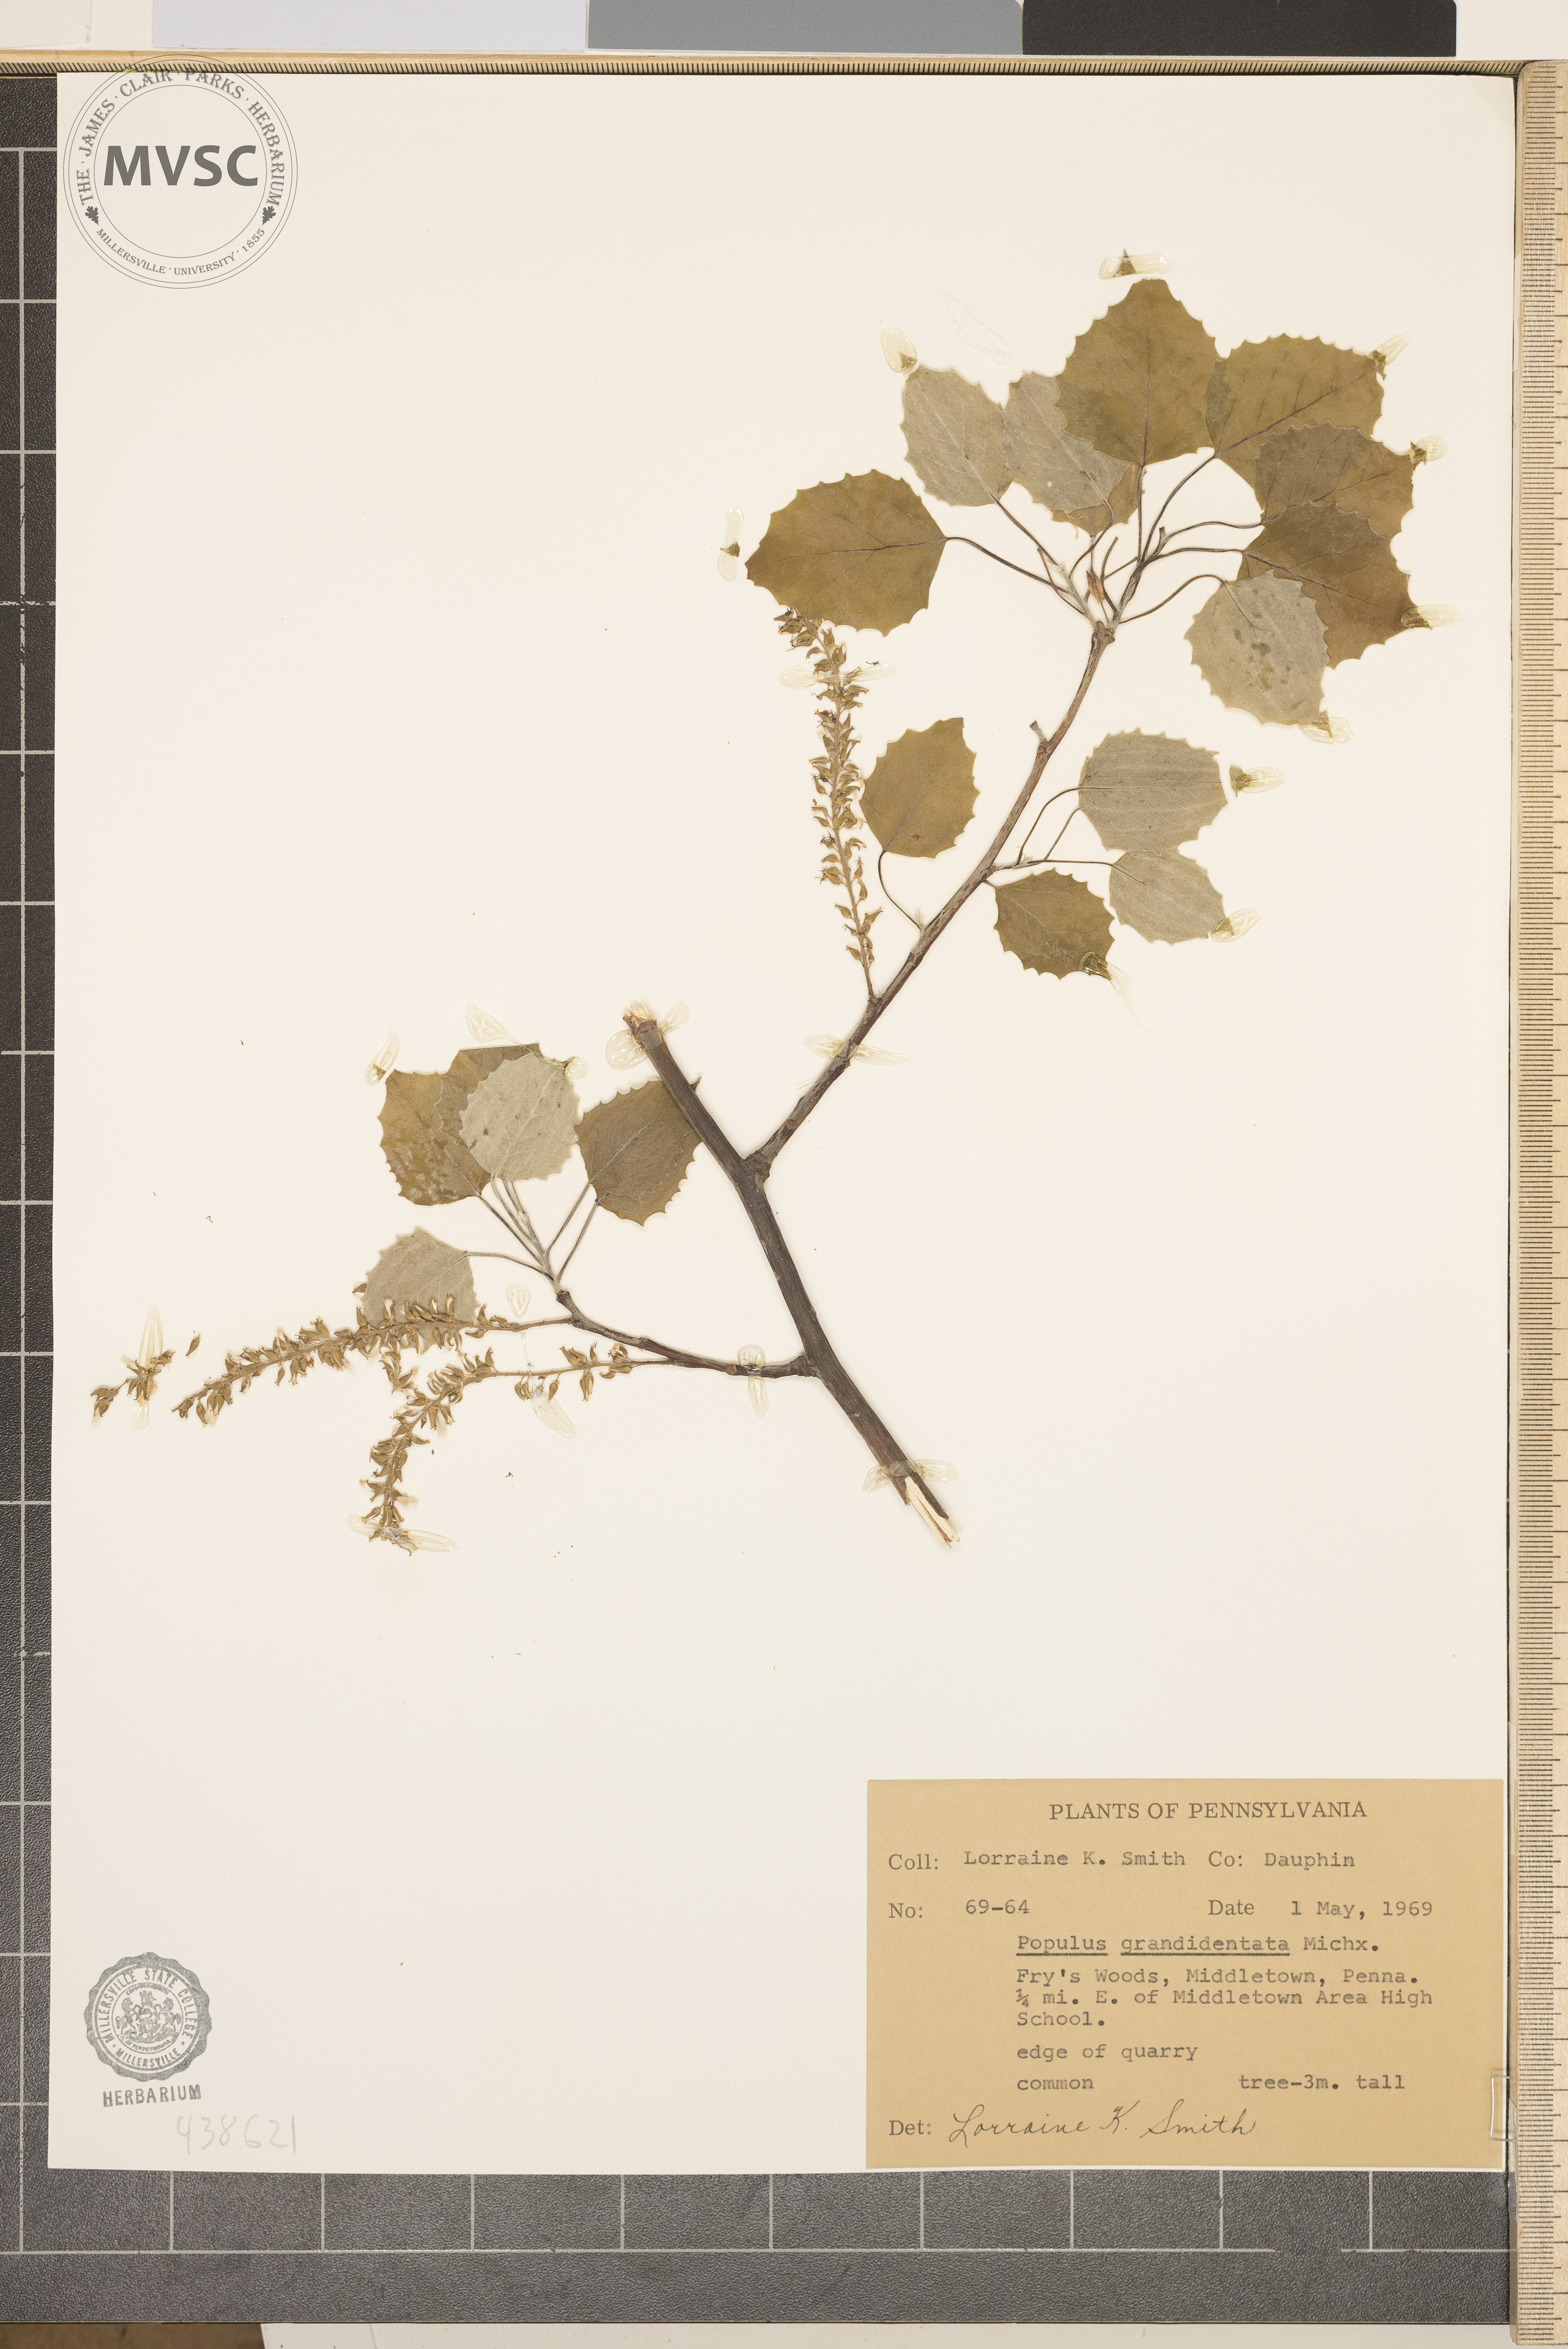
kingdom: Plantae
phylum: Tracheophyta
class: Magnoliopsida
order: Malpighiales
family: Salicaceae
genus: Populus
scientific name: Populus grandidentata
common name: Bigtooth aspen
